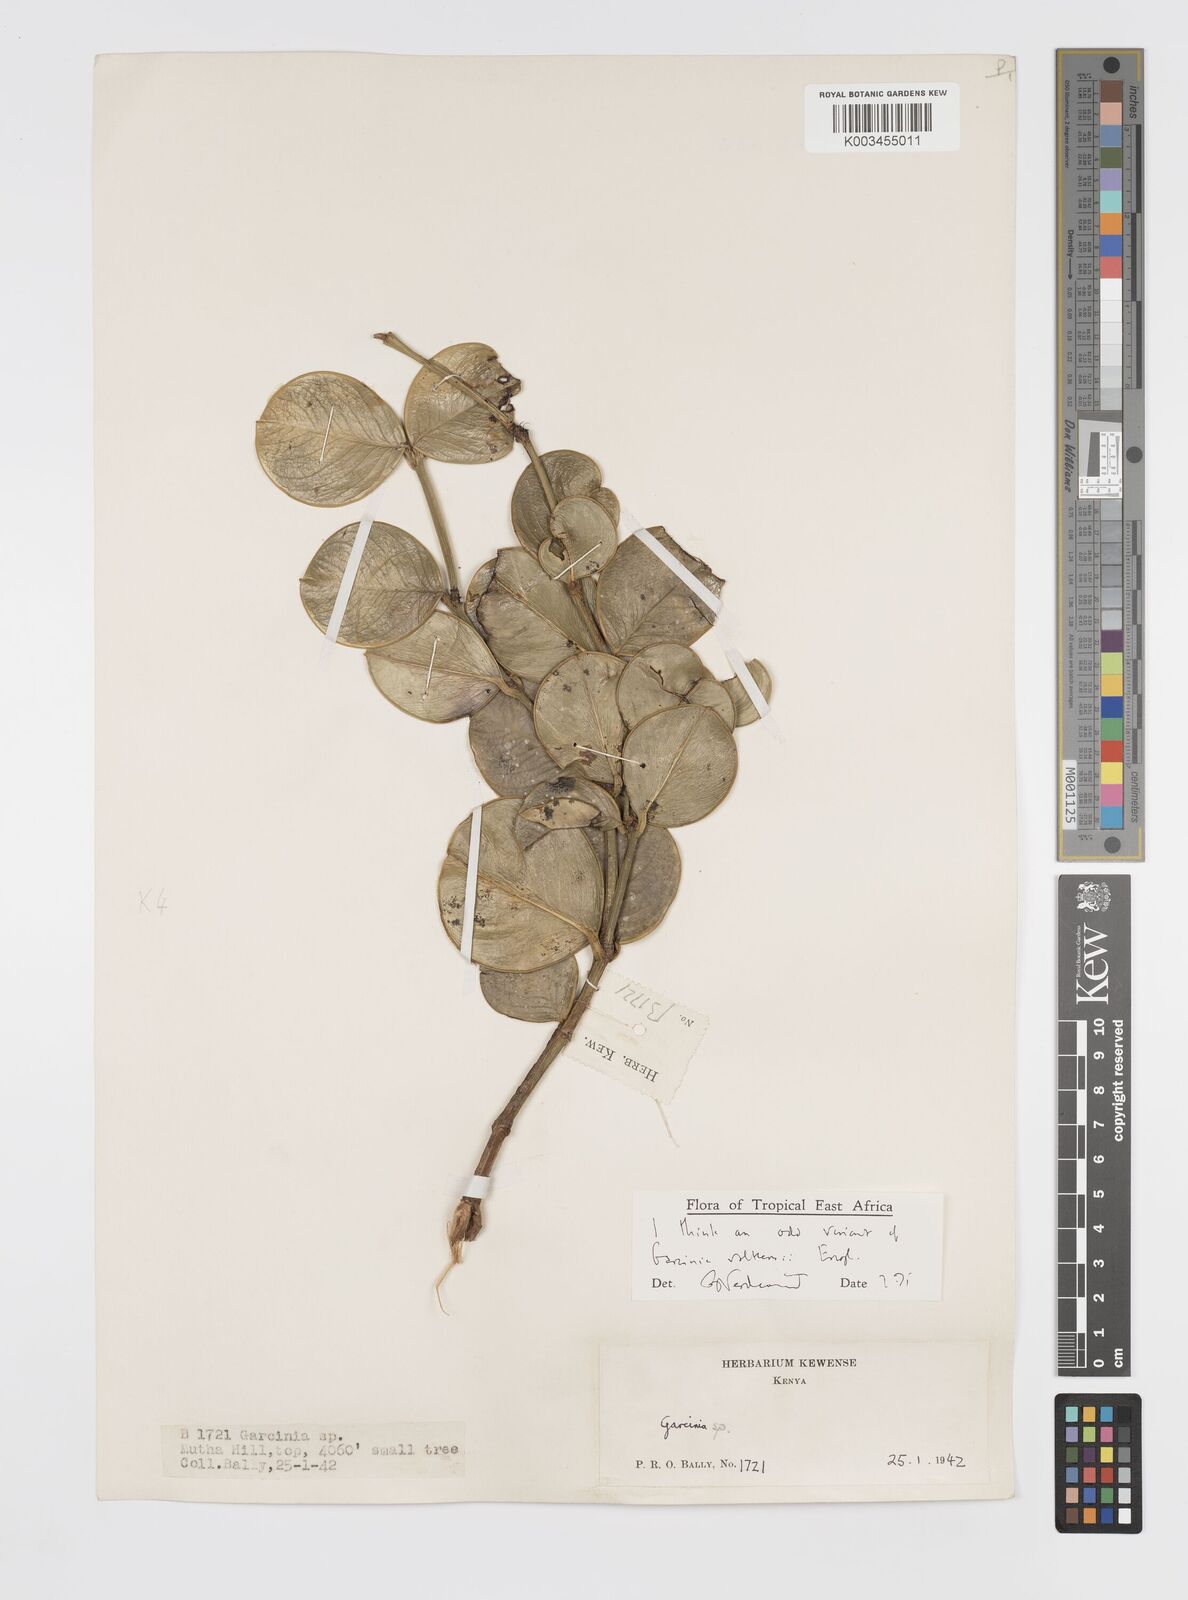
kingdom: Plantae
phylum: Tracheophyta
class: Magnoliopsida
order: Malpighiales
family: Clusiaceae
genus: Garcinia
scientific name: Garcinia volkensii
